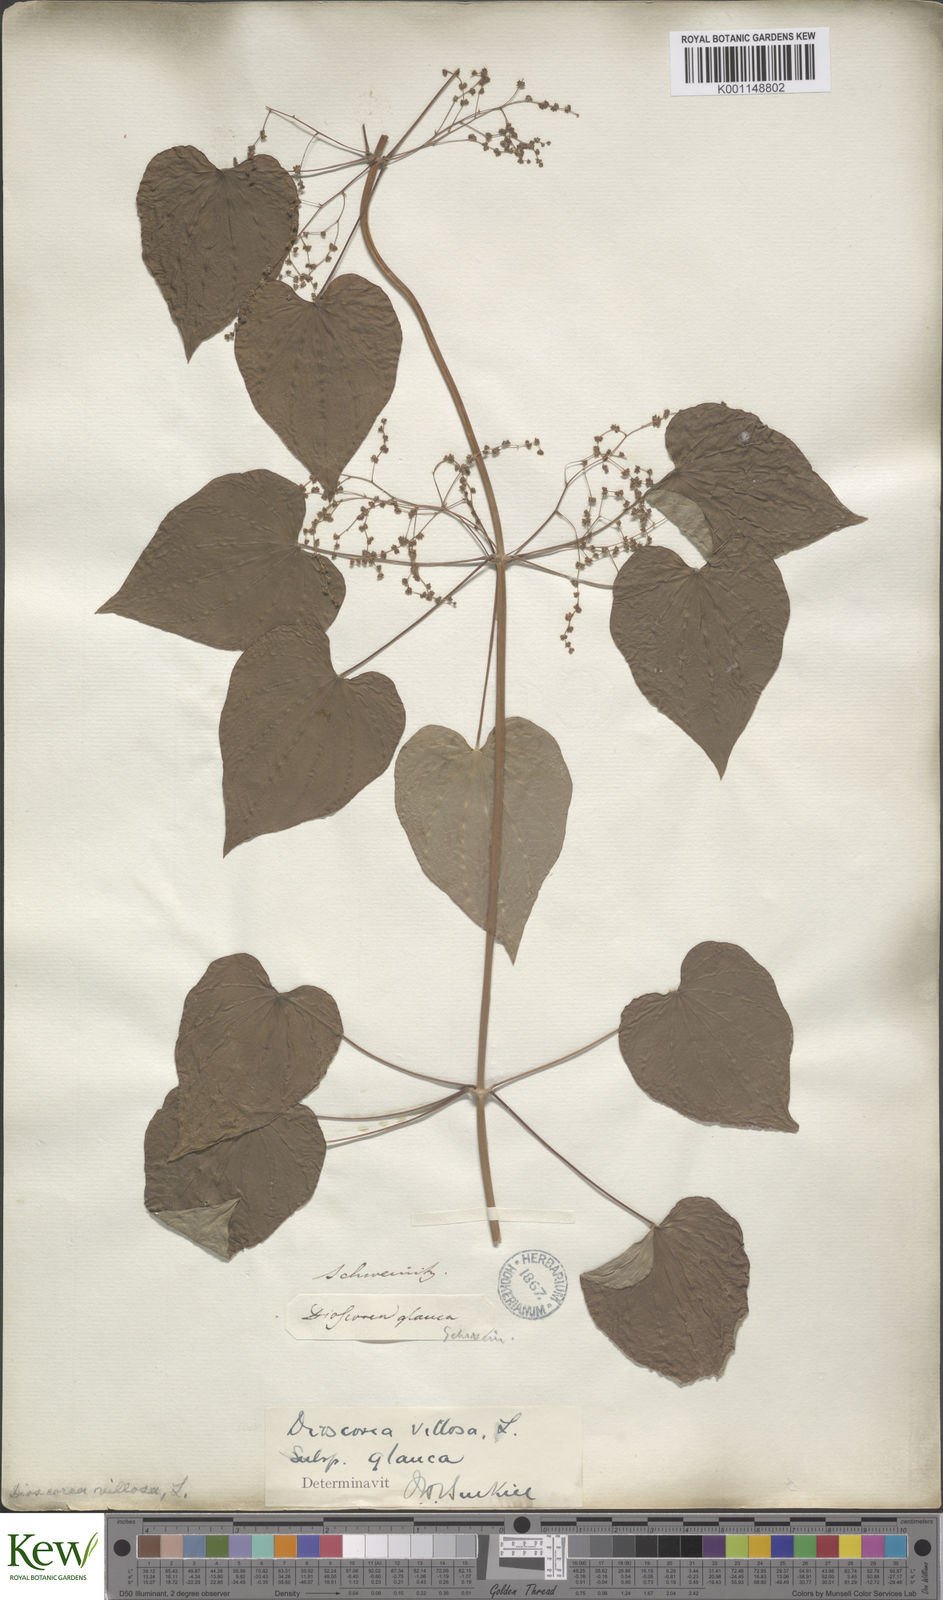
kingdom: Plantae
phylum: Tracheophyta
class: Liliopsida
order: Dioscoreales
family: Dioscoreaceae
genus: Dioscorea
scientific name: Dioscorea villosa
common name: Wild yam
